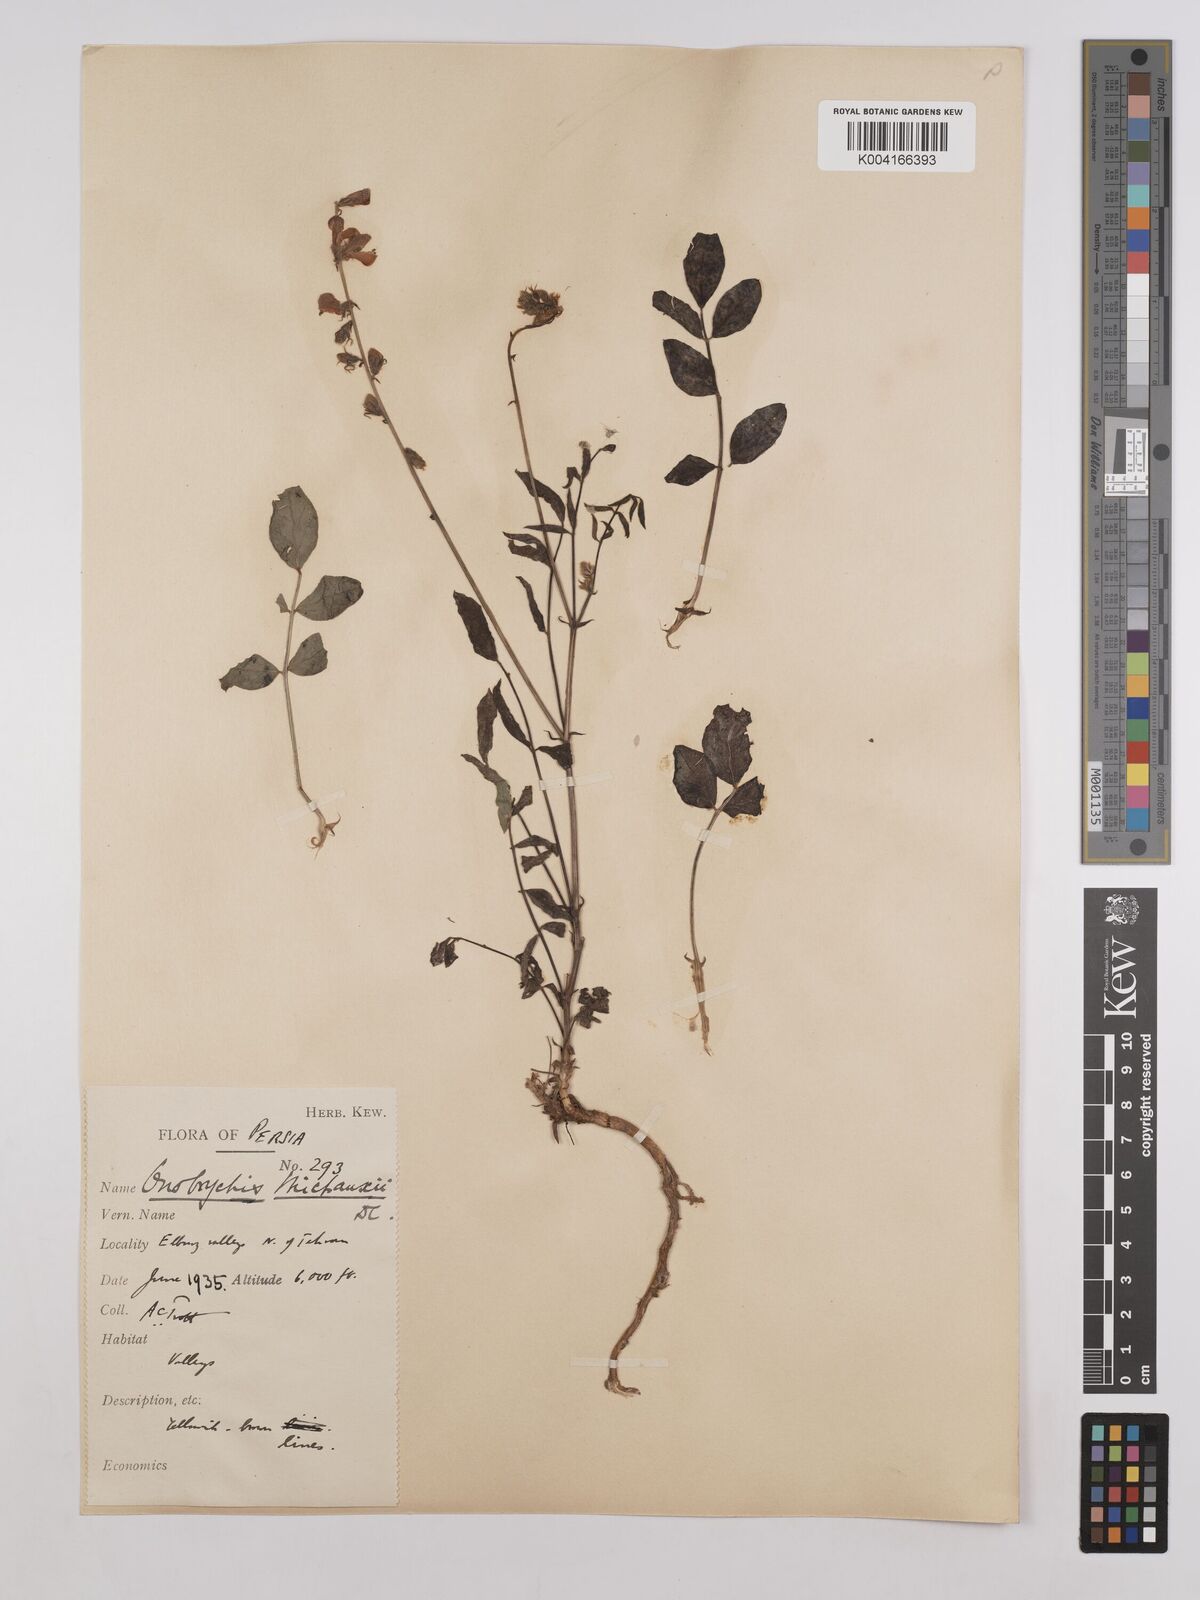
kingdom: Plantae
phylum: Tracheophyta
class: Magnoliopsida
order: Fabales
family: Fabaceae
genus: Onobrychis
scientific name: Onobrychis michauxii
